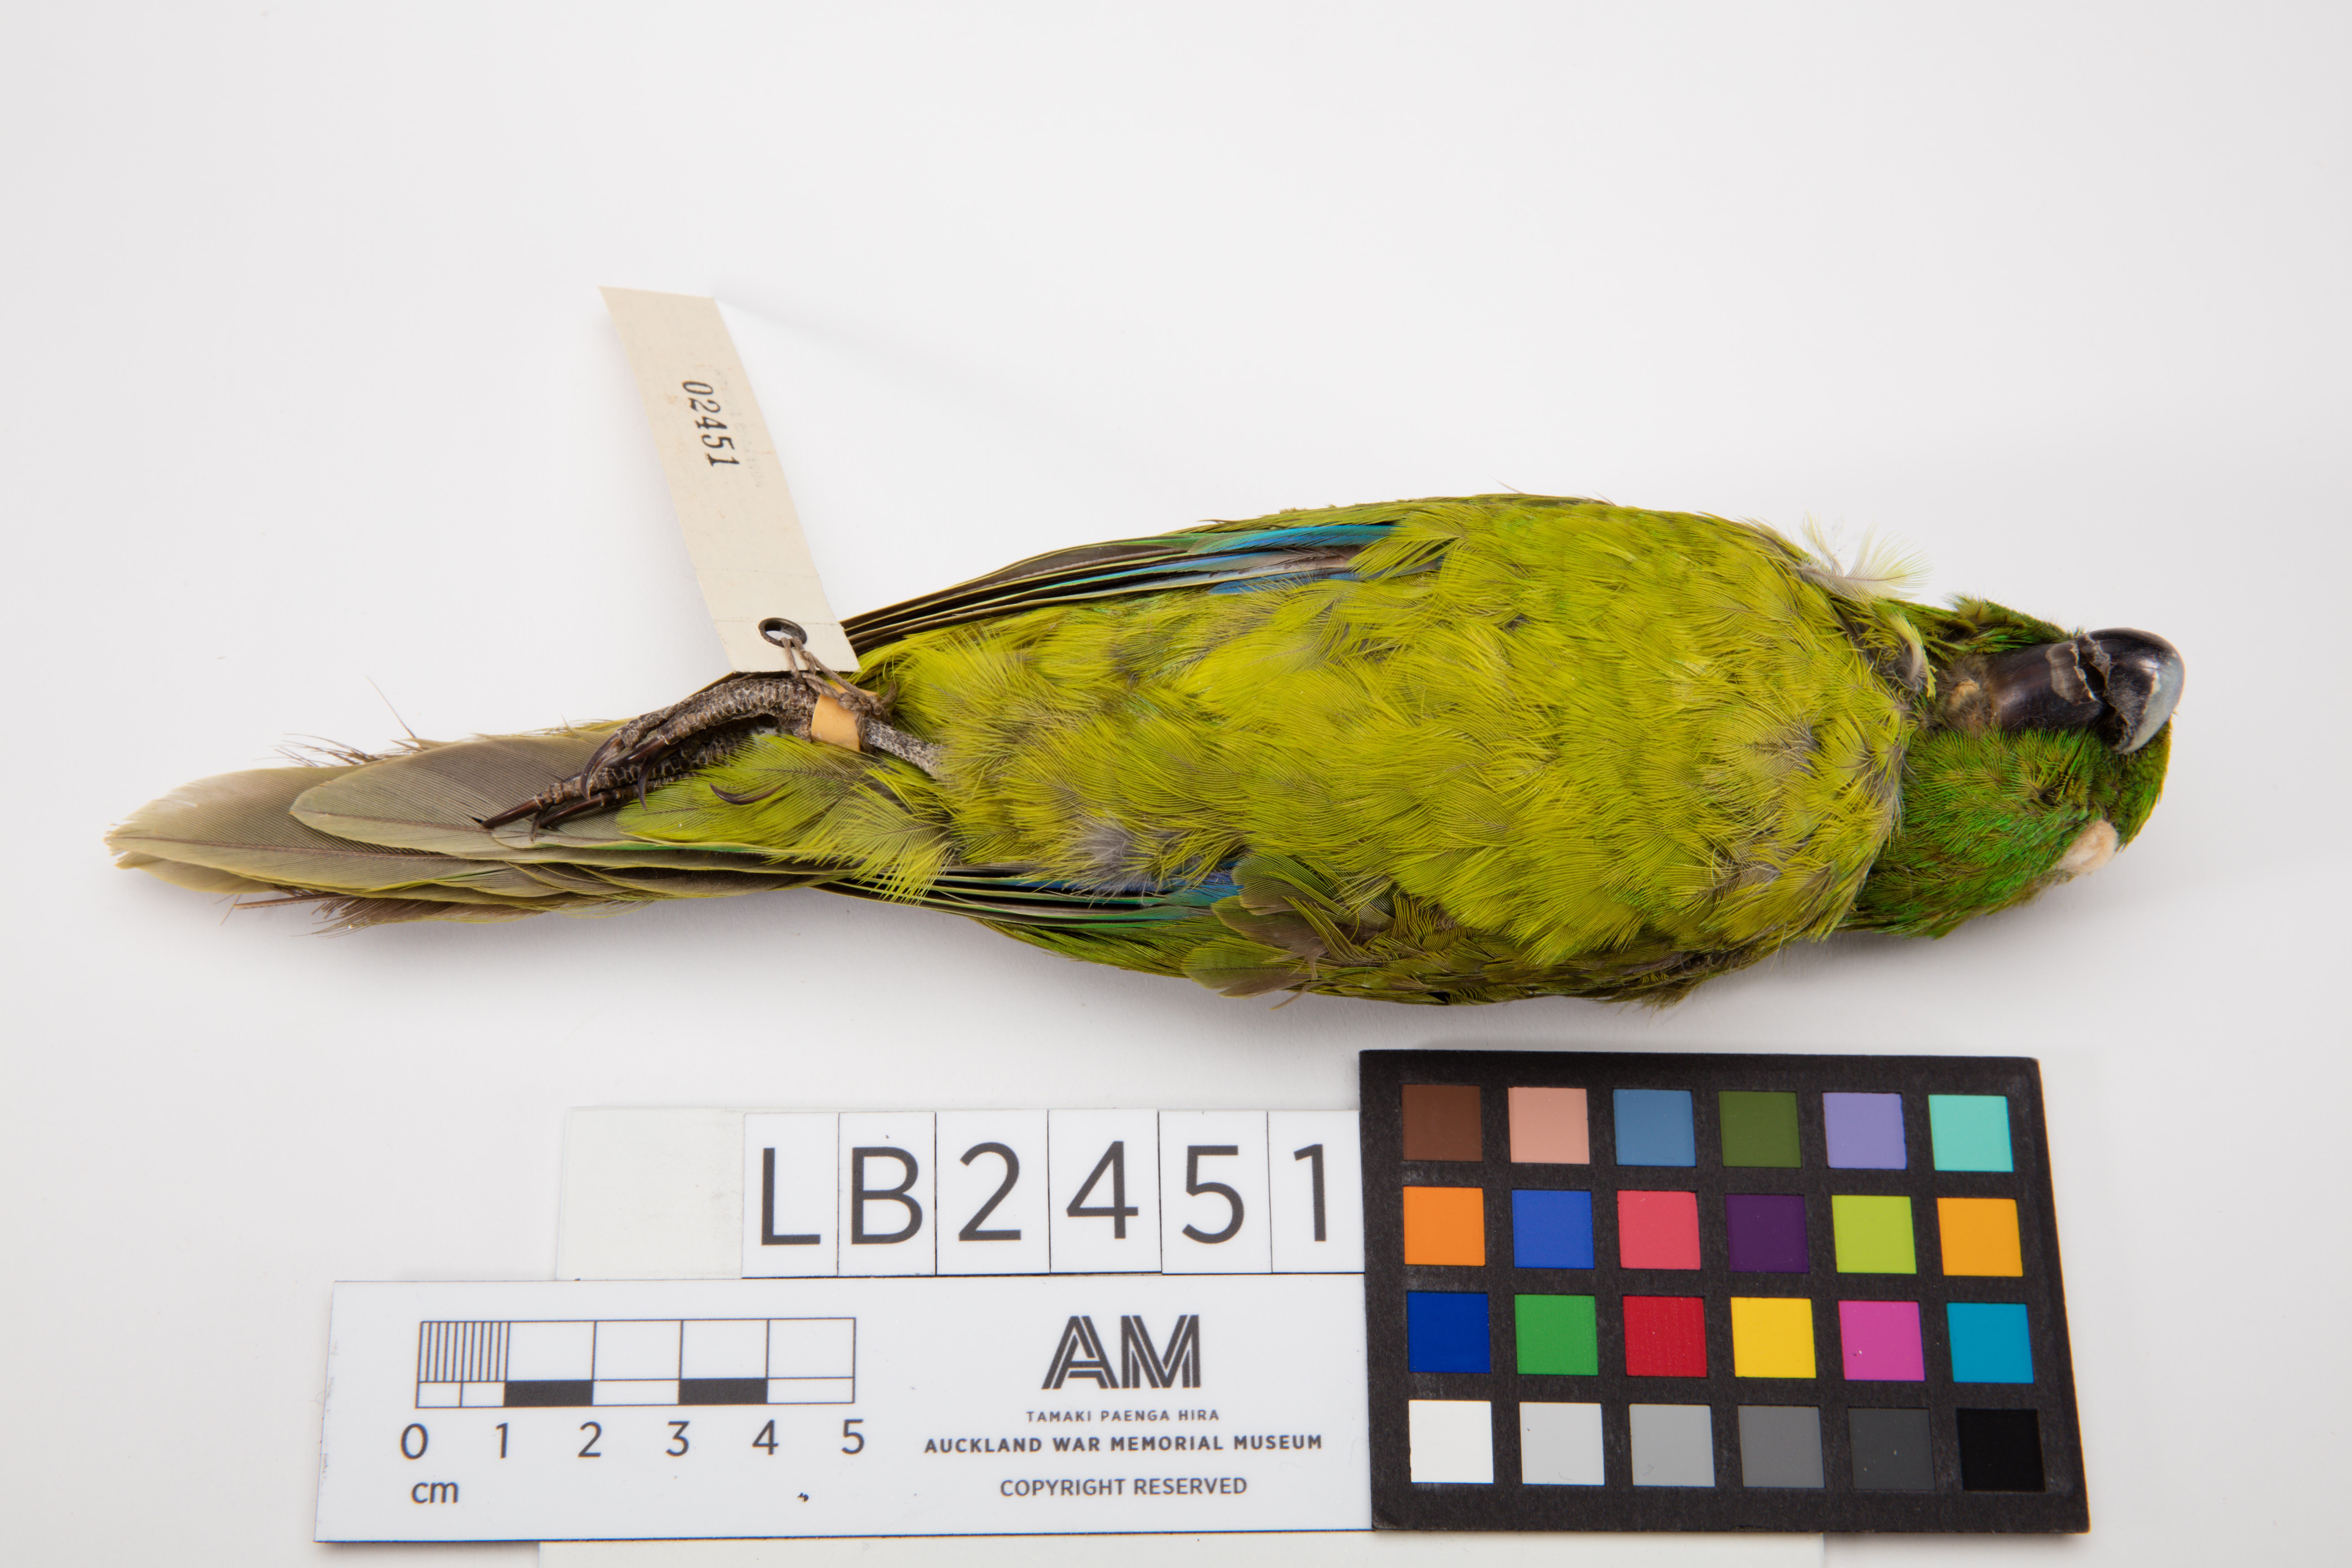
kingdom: Animalia
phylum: Chordata
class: Aves
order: Psittaciformes
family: Psittacidae
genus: Cyanoramphus
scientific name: Cyanoramphus unicolor
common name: Antipodes parakeet
